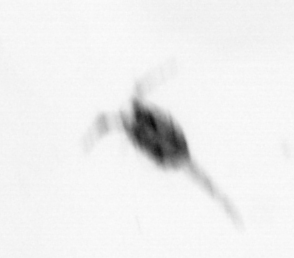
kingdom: Animalia
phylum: Arthropoda
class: Copepoda
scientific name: Copepoda
